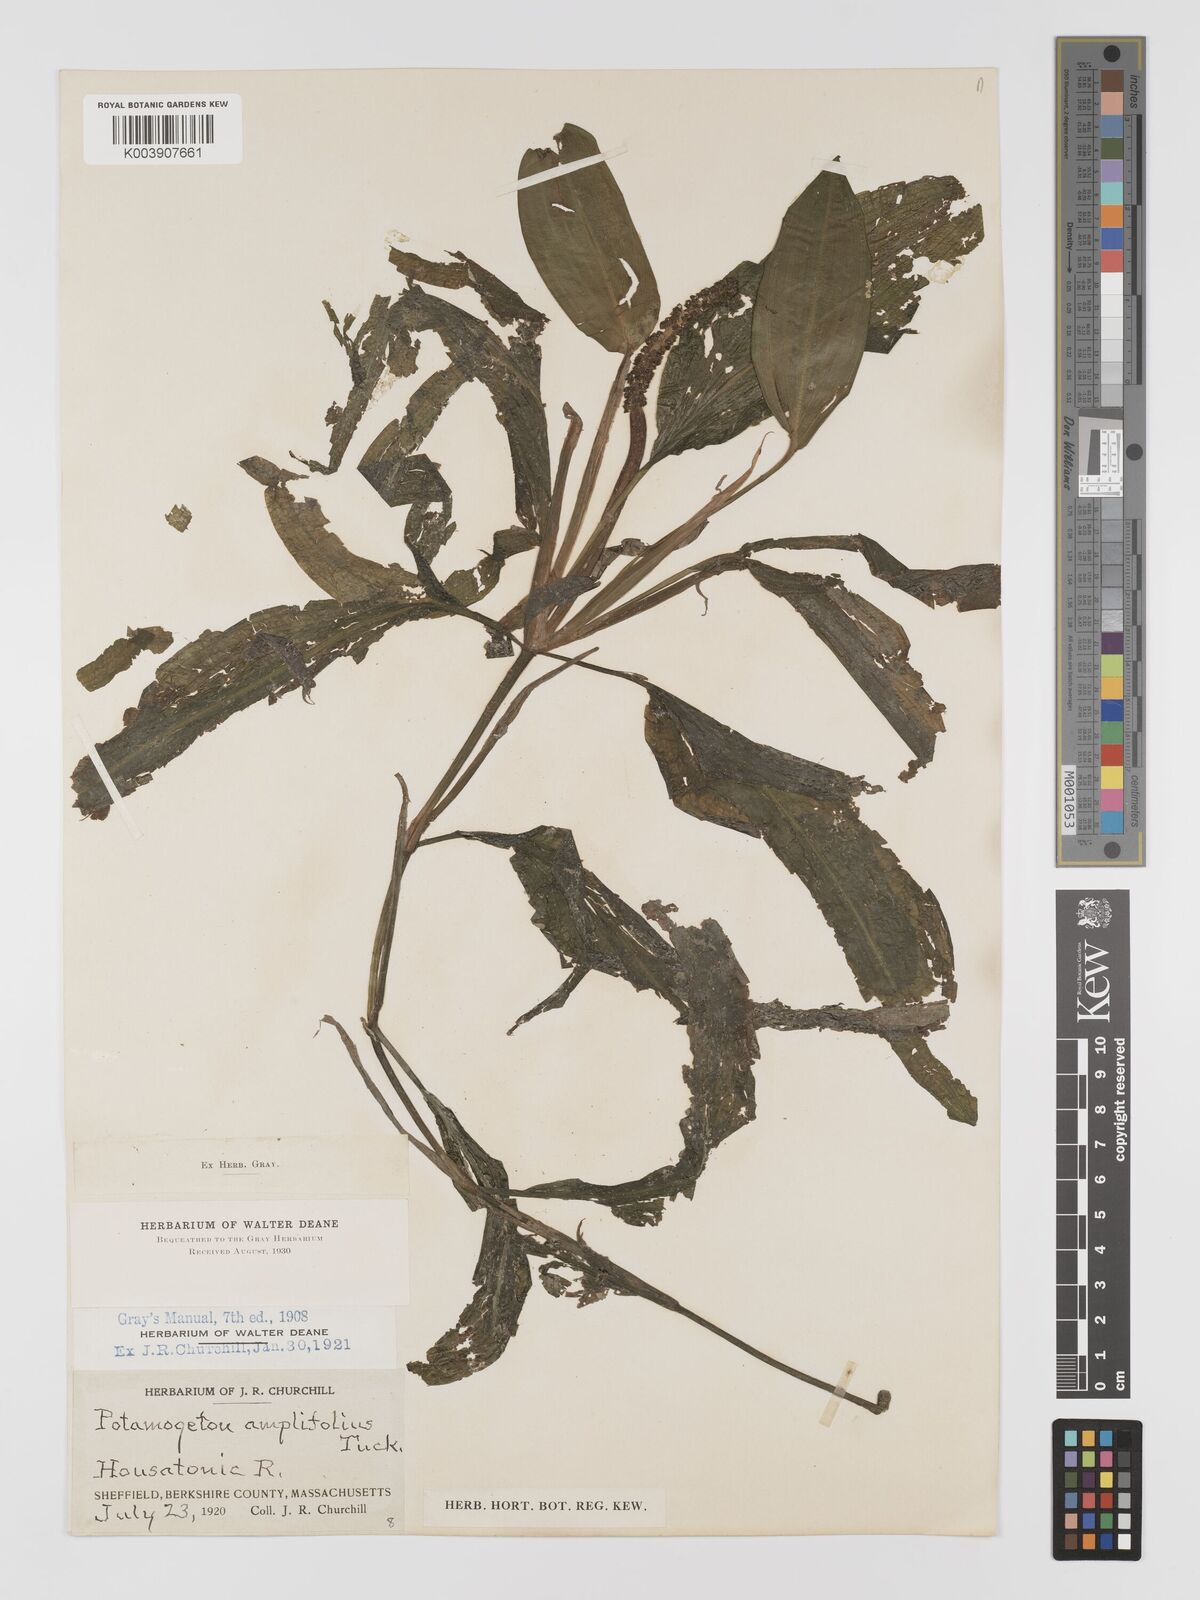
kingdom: Plantae
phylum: Tracheophyta
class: Liliopsida
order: Alismatales
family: Potamogetonaceae
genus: Potamogeton
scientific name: Potamogeton amplifolius
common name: Broad-leaved pondweed
